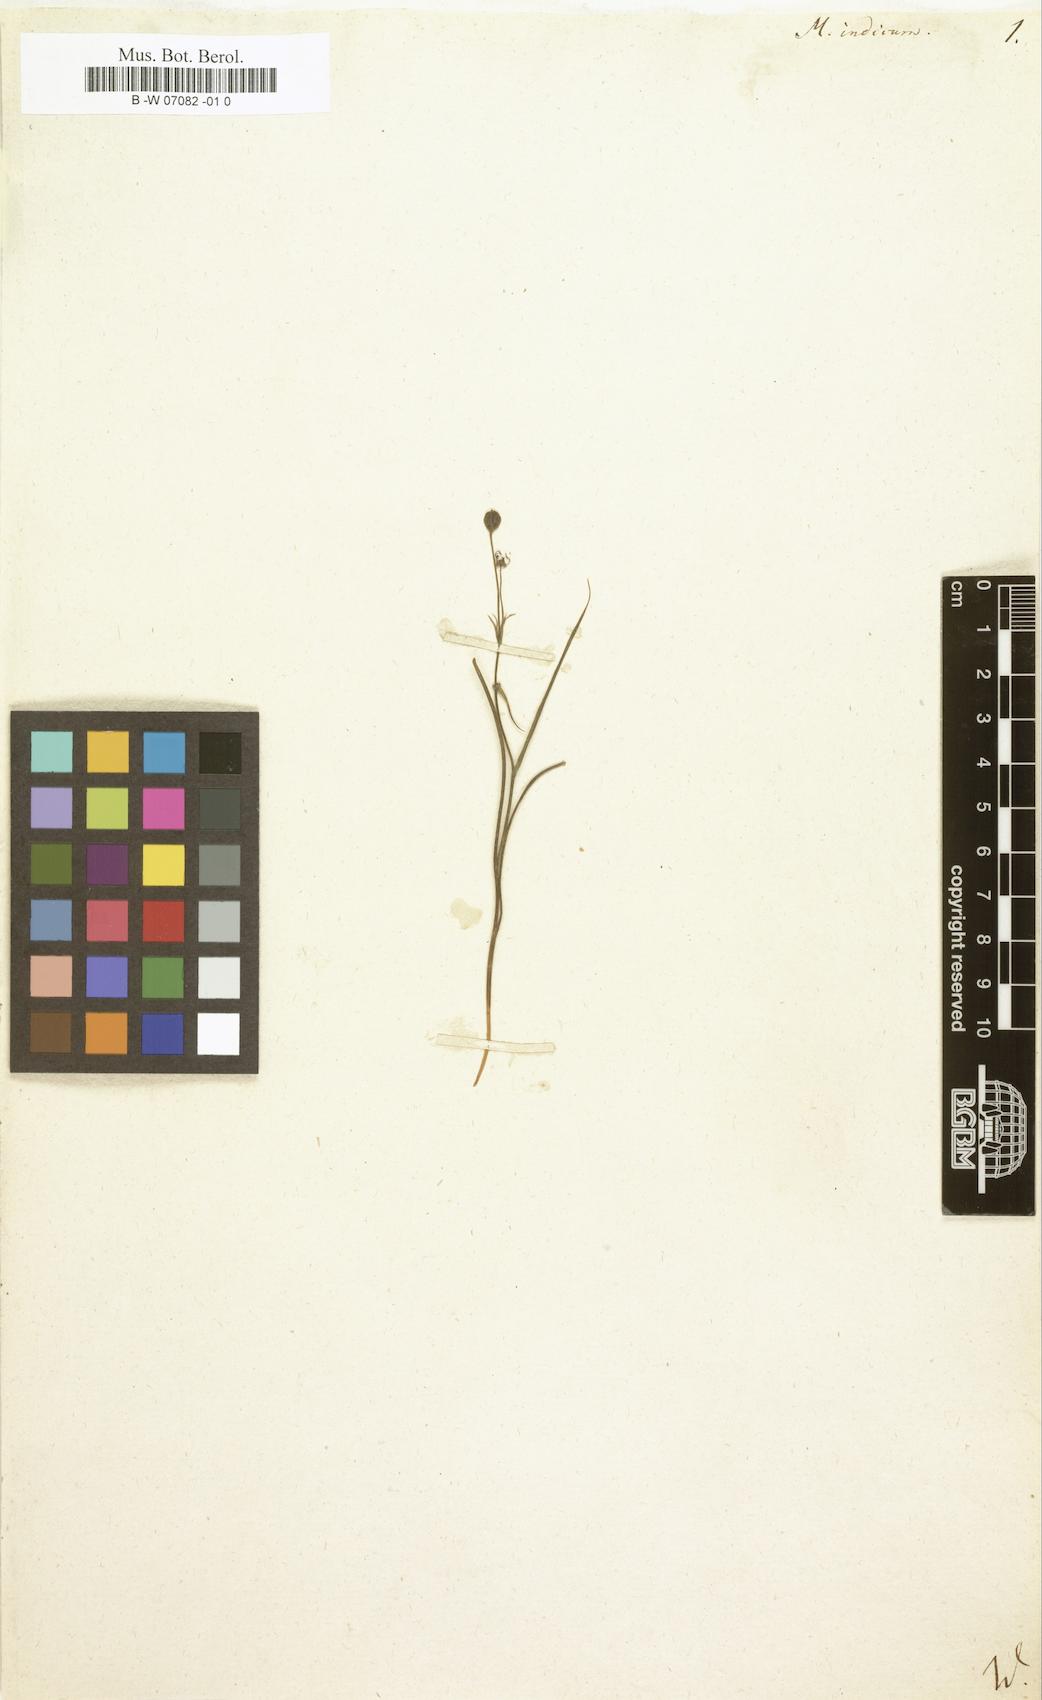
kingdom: Plantae
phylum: Tracheophyta
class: Liliopsida
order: Liliales
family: Colchicaceae
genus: Iphigenia
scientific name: Iphigenia indica
